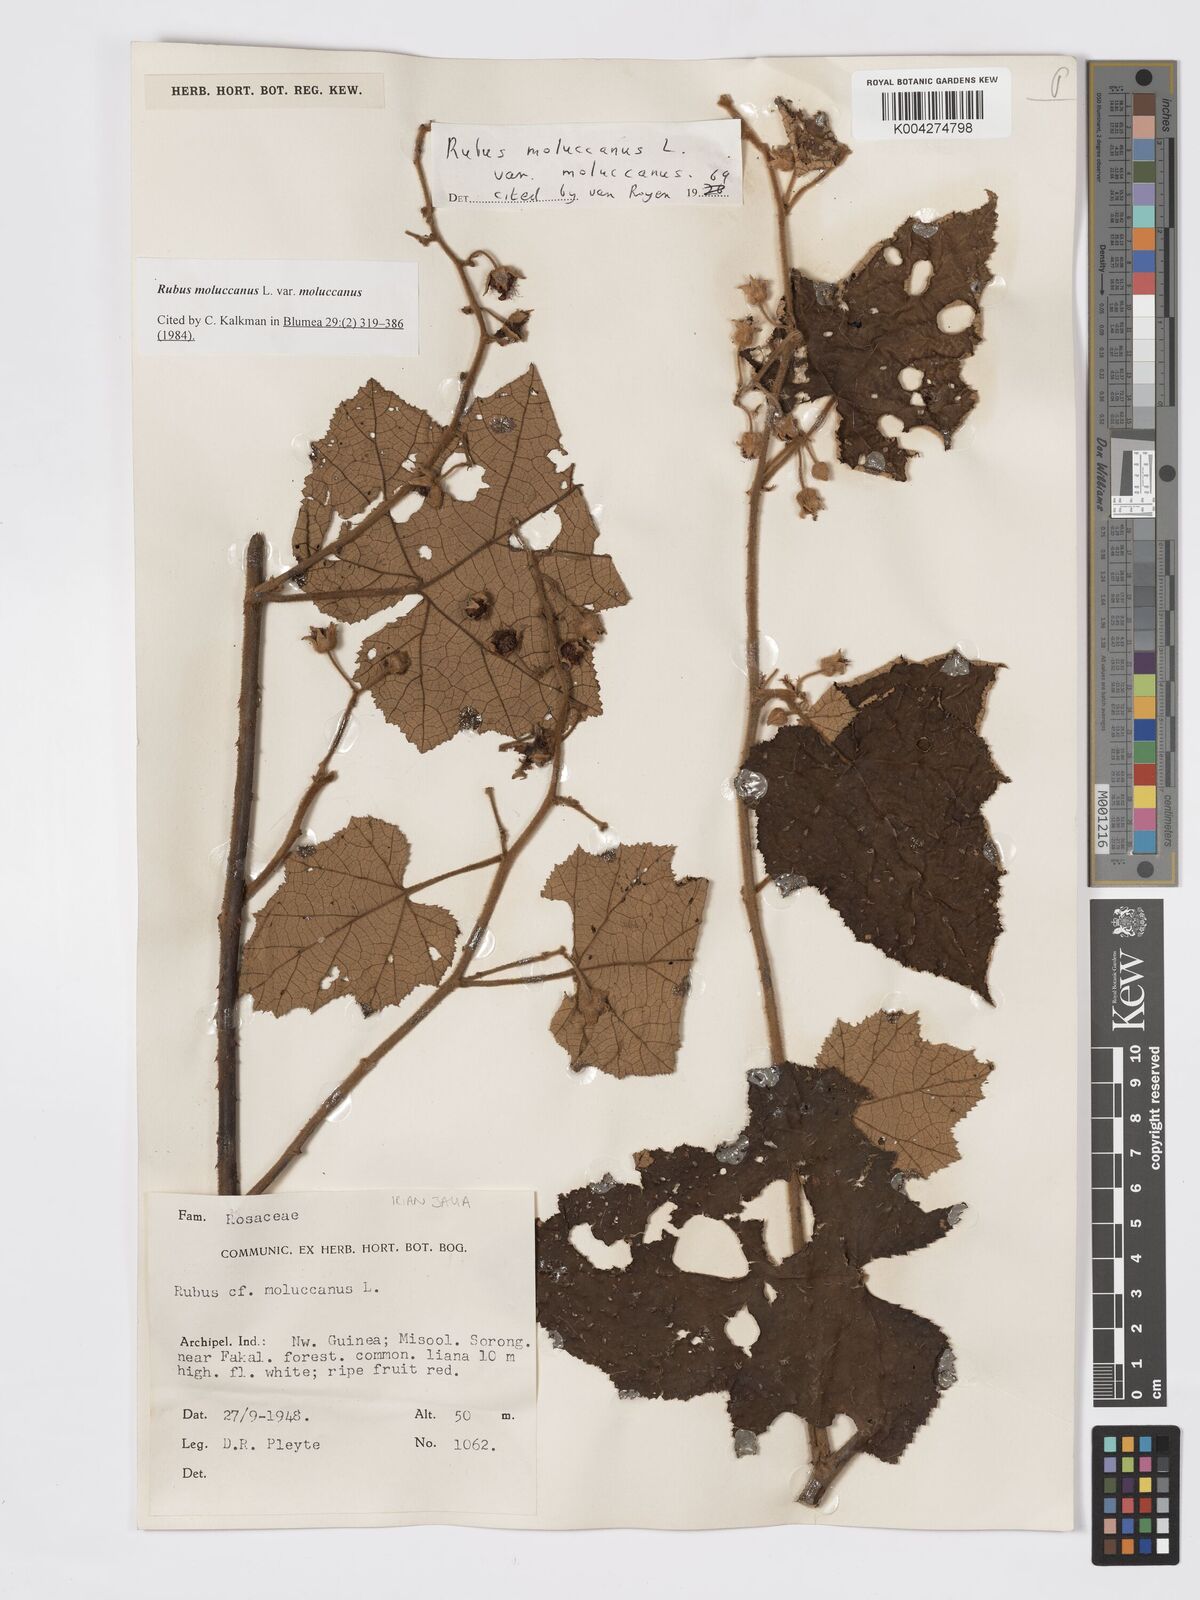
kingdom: Plantae
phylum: Tracheophyta
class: Magnoliopsida
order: Rosales
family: Rosaceae
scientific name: Rosaceae
